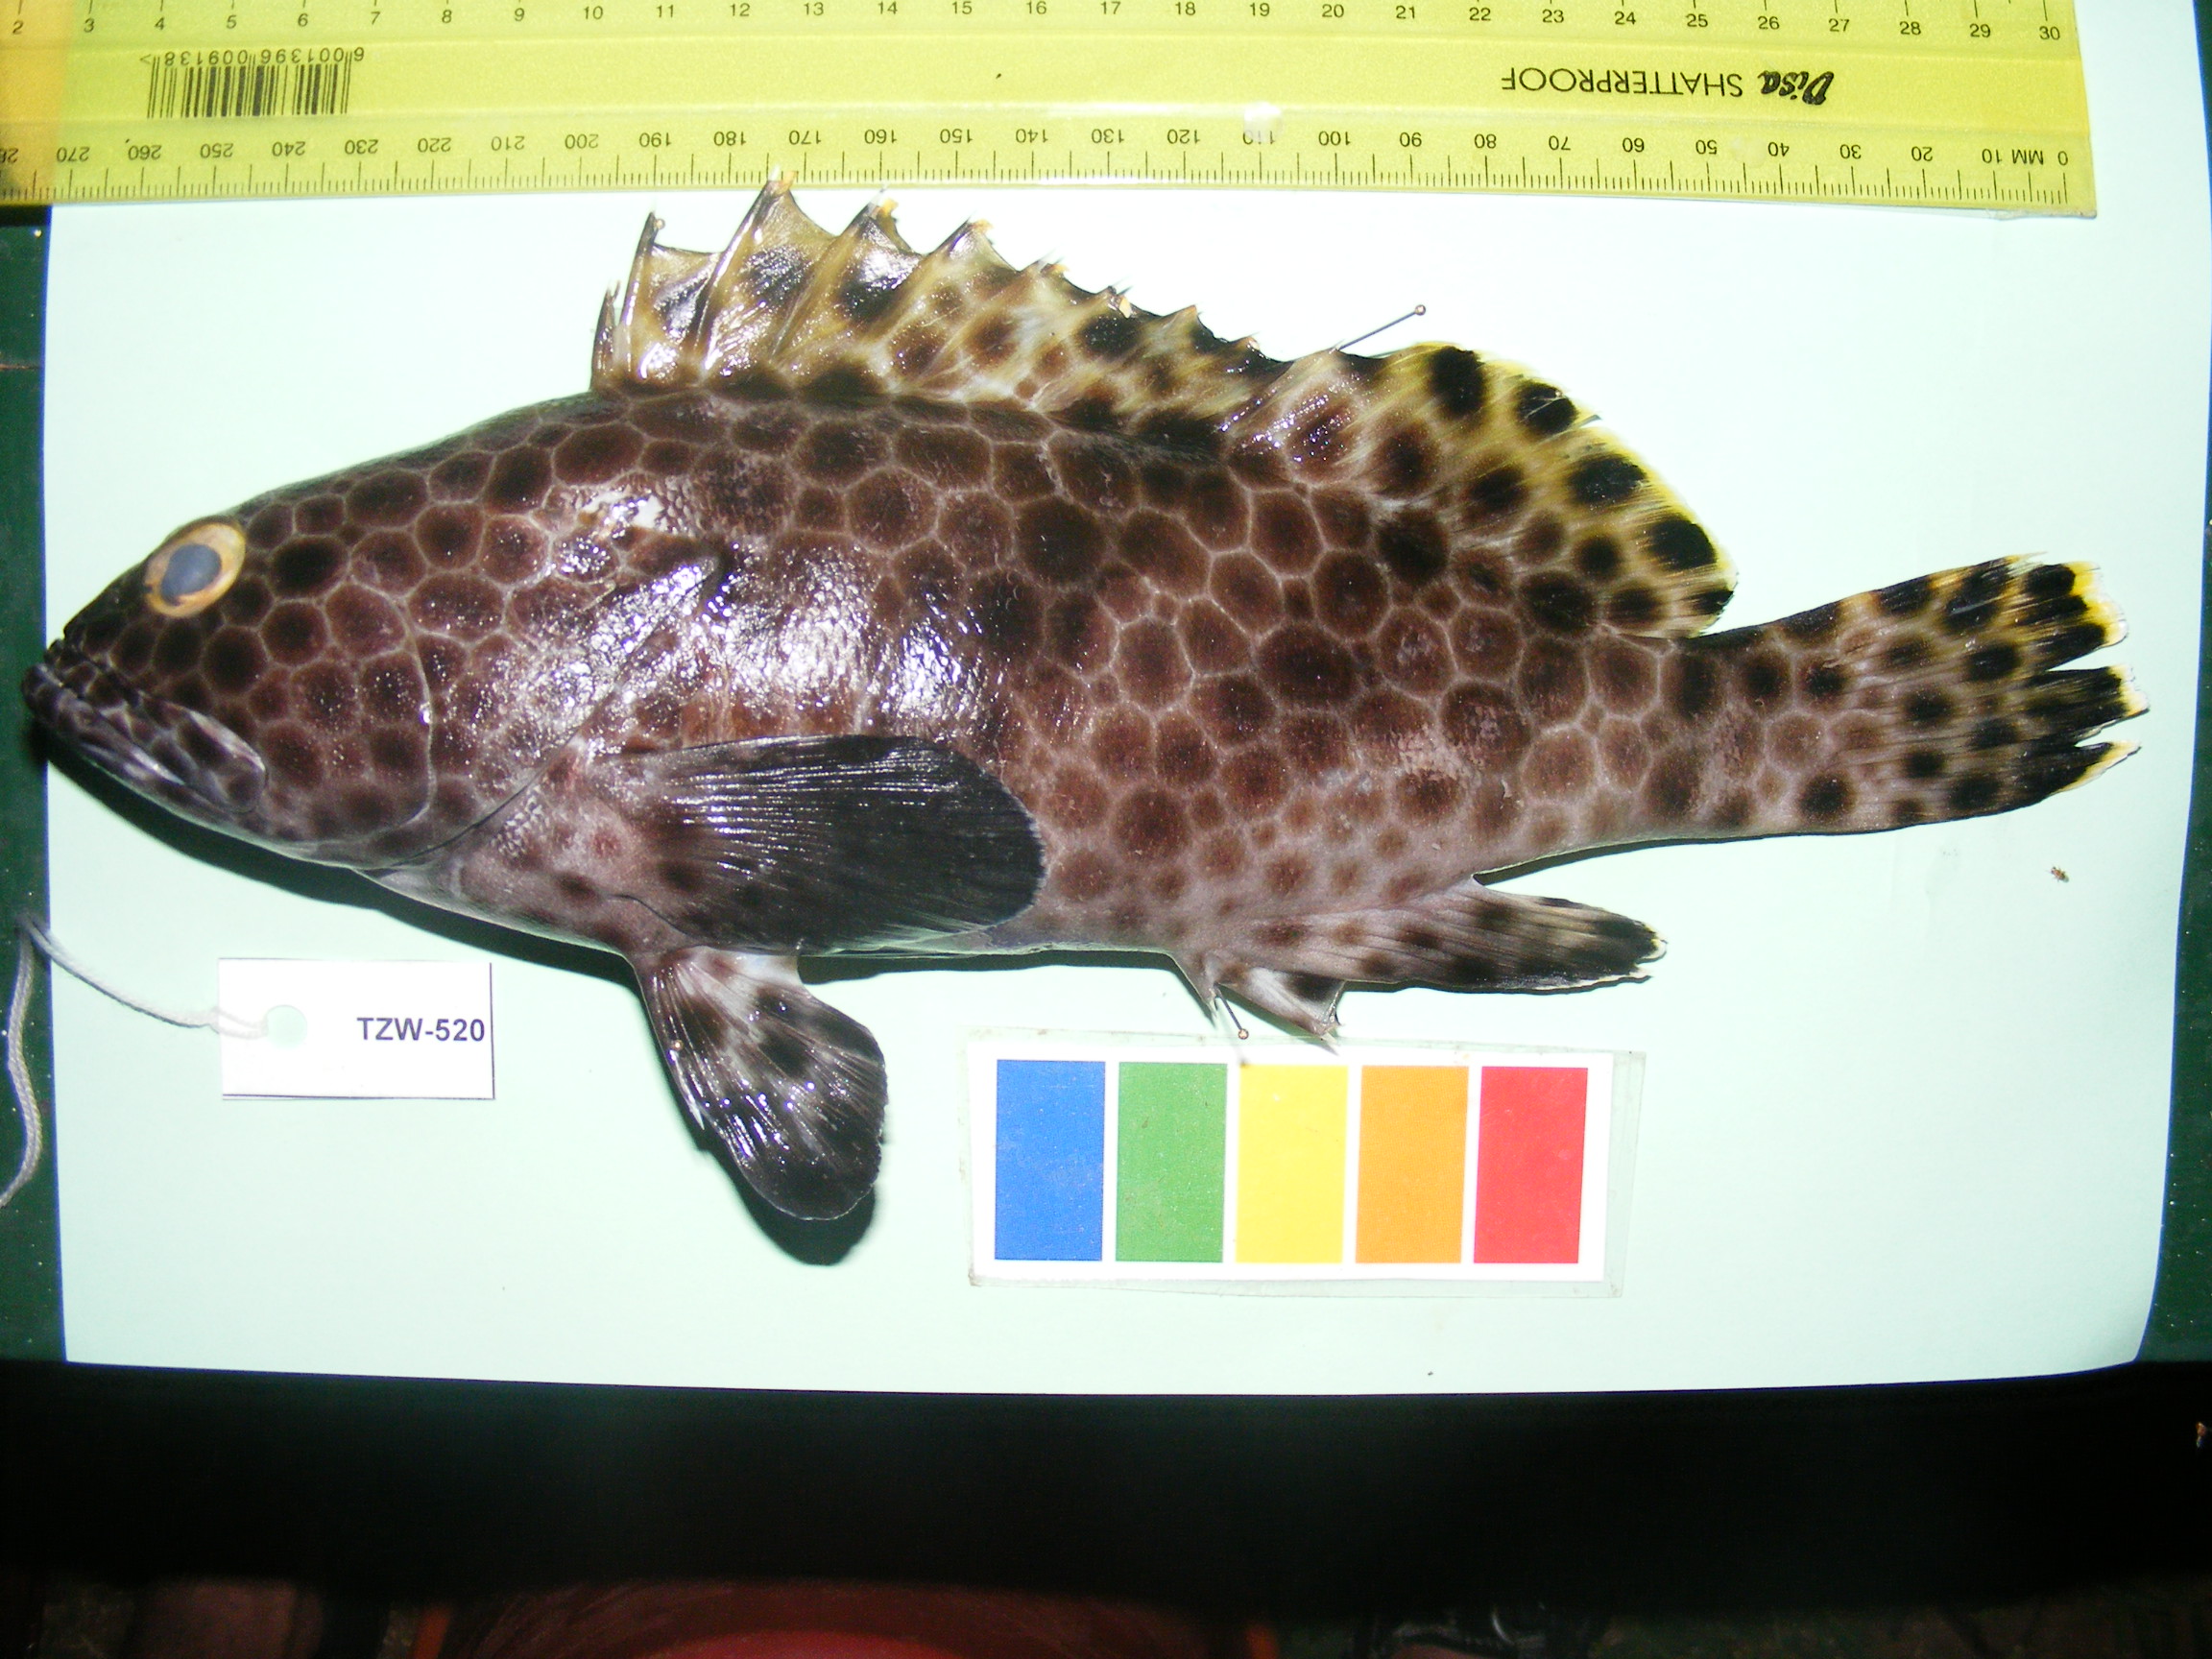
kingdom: Animalia
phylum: Chordata
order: Perciformes
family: Serranidae
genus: Epinephelus
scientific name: Epinephelus macrospilos
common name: Snubnose grouper
